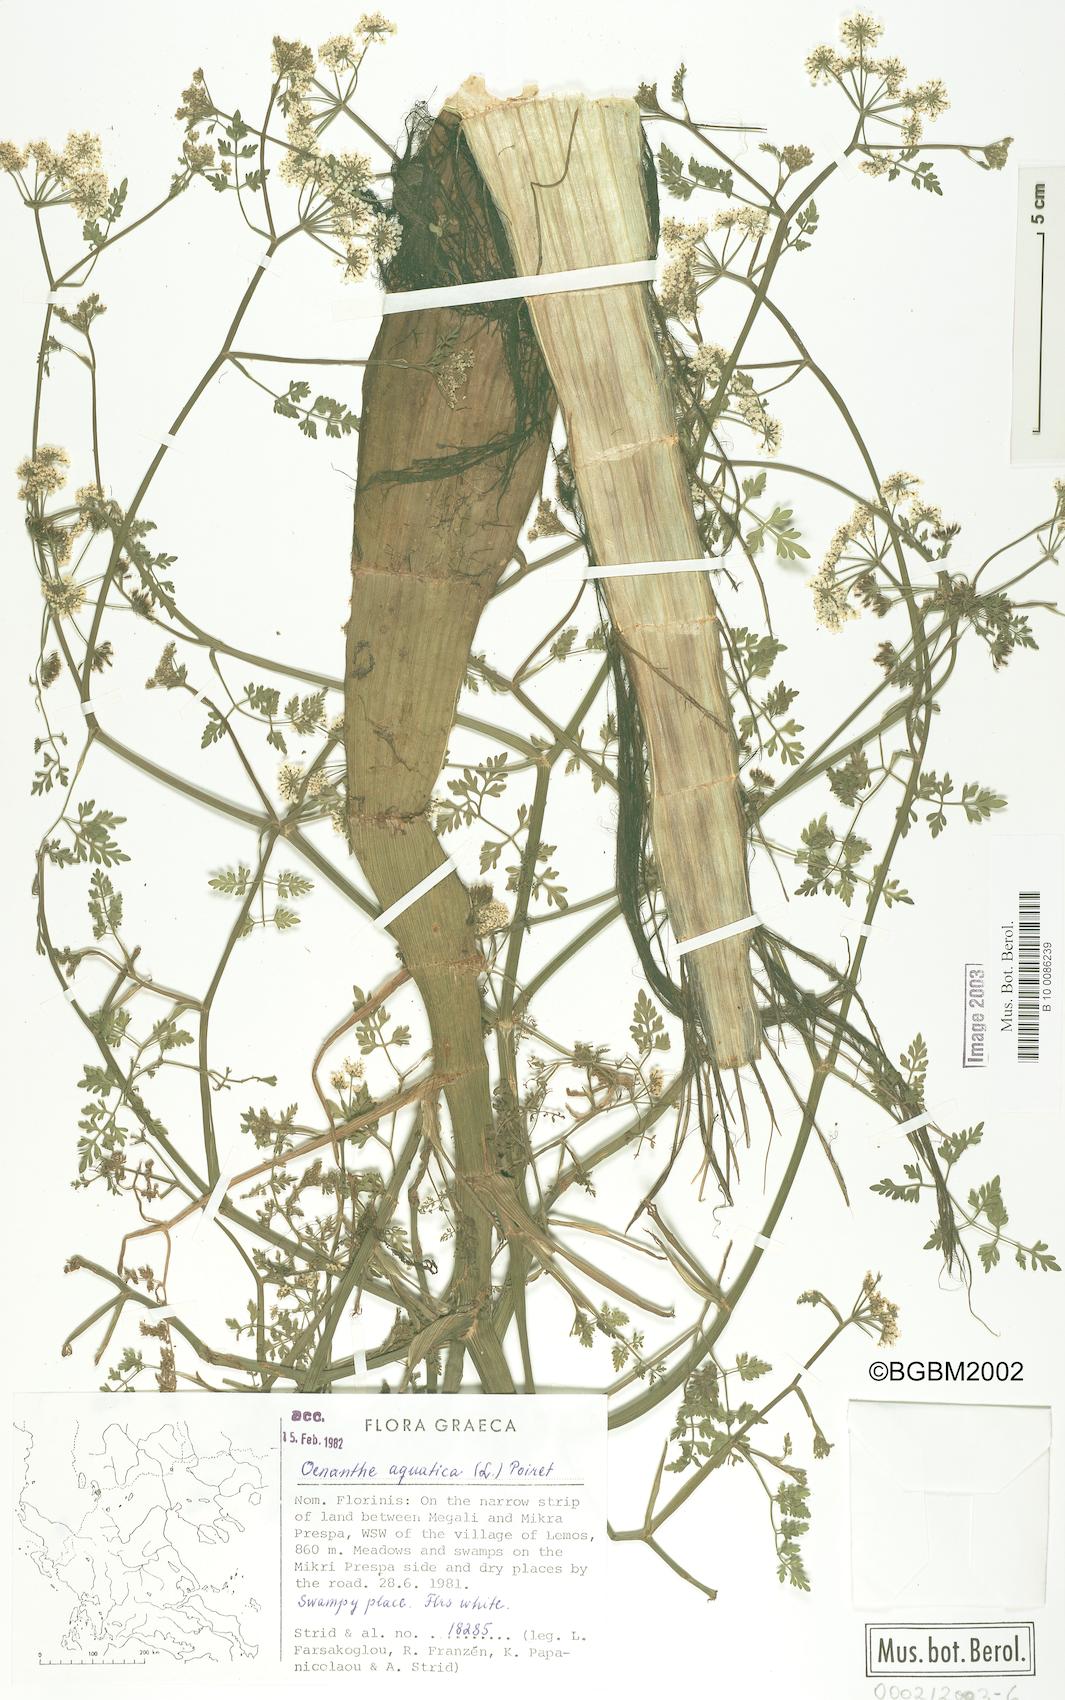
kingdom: Plantae
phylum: Tracheophyta
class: Magnoliopsida
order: Apiales
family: Apiaceae
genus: Oenanthe
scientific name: Oenanthe aquatica
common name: Fine-leaved water-dropwort
